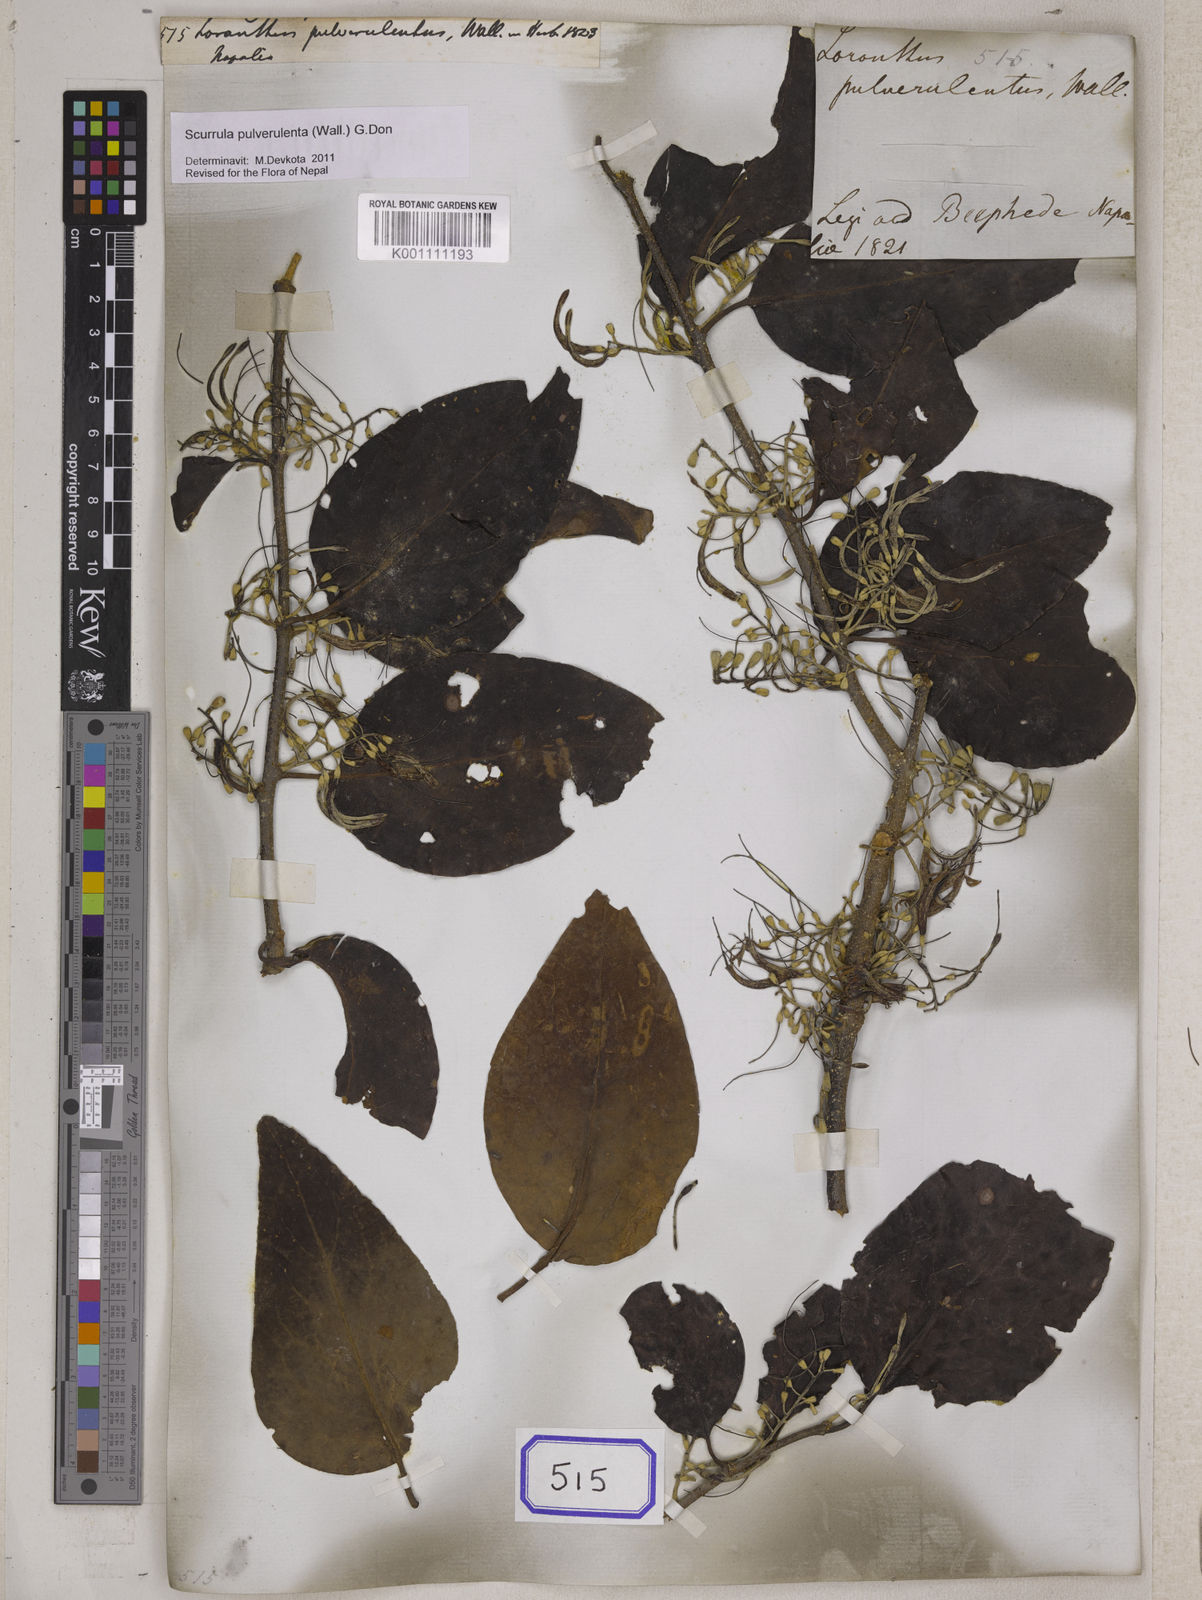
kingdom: Plantae
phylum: Tracheophyta
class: Magnoliopsida
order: Santalales
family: Loranthaceae
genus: Scurrula
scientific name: Scurrula pulverulenta
